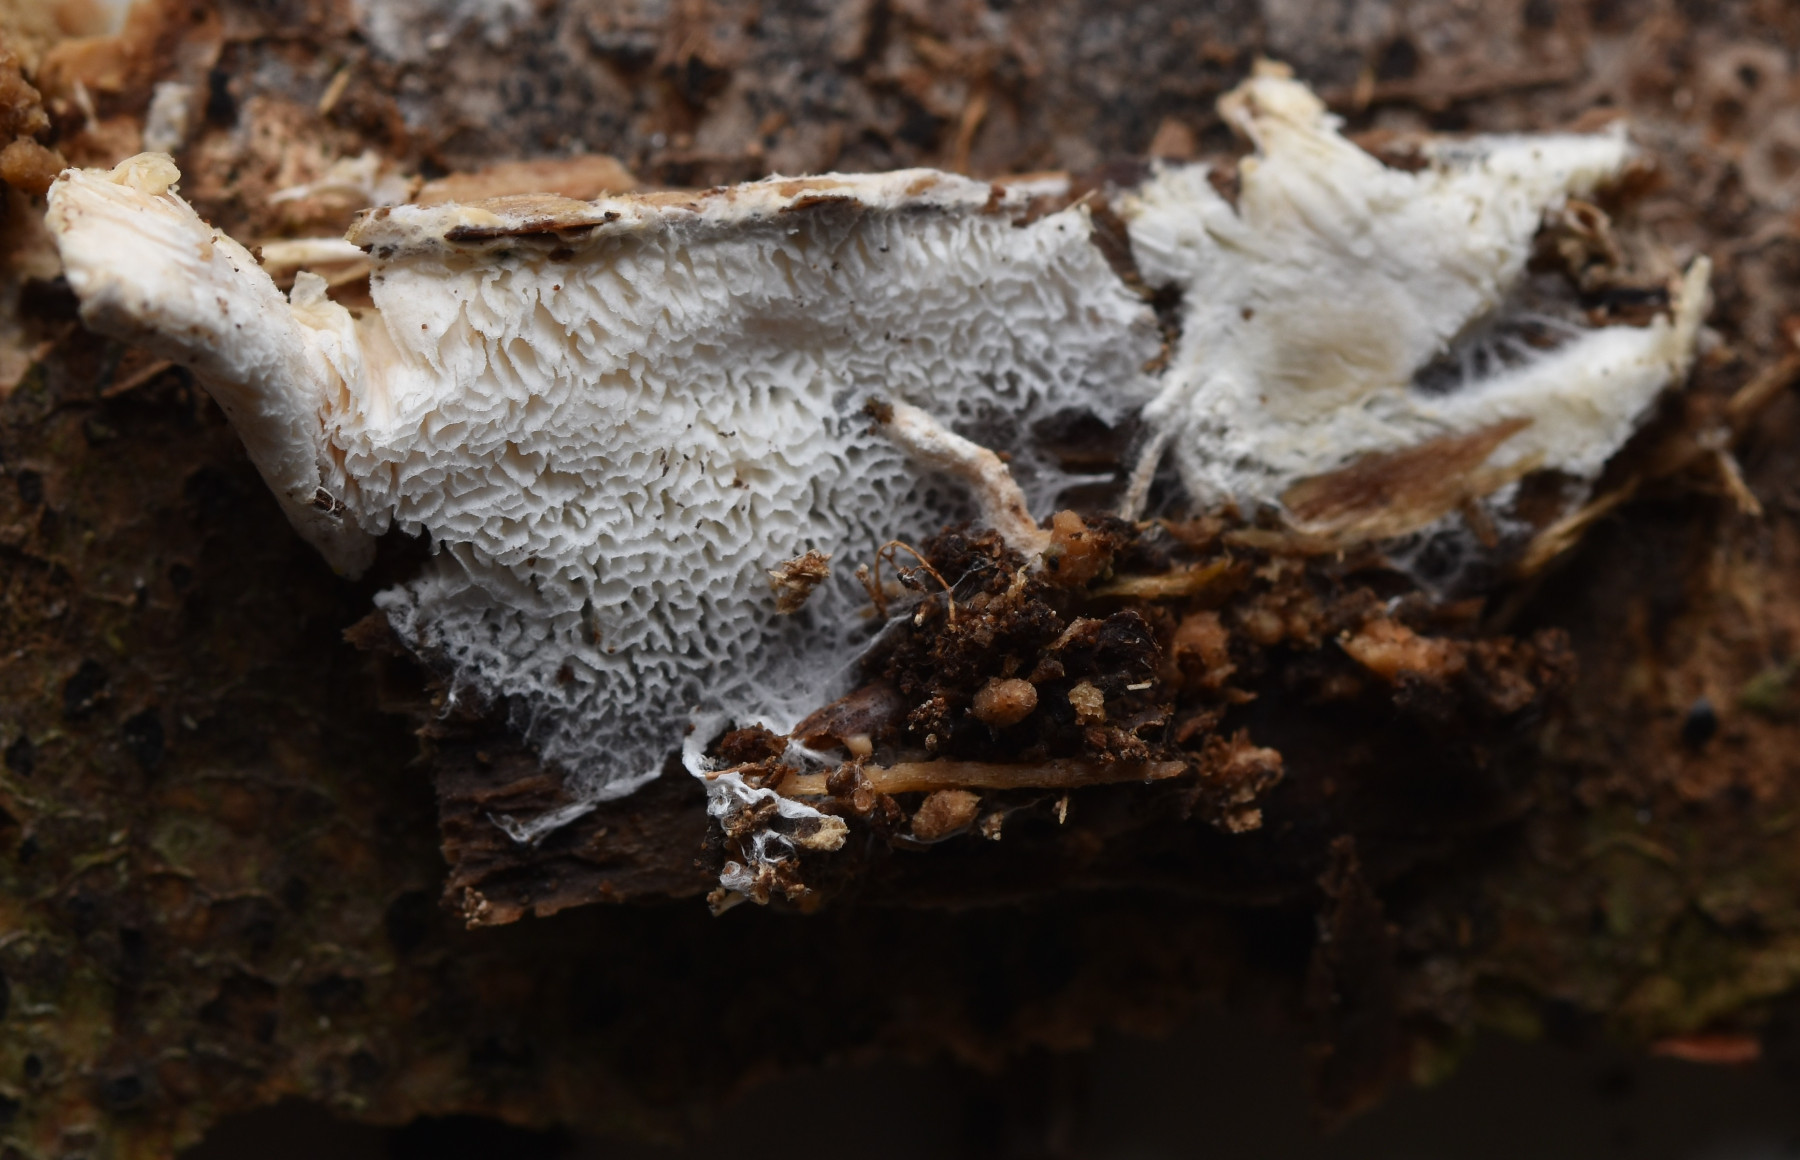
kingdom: Fungi
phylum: Basidiomycota
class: Agaricomycetes
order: Trechisporales
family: Sistotremataceae
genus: Trechispora
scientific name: Trechispora hymenocystis
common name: poret vathinde
